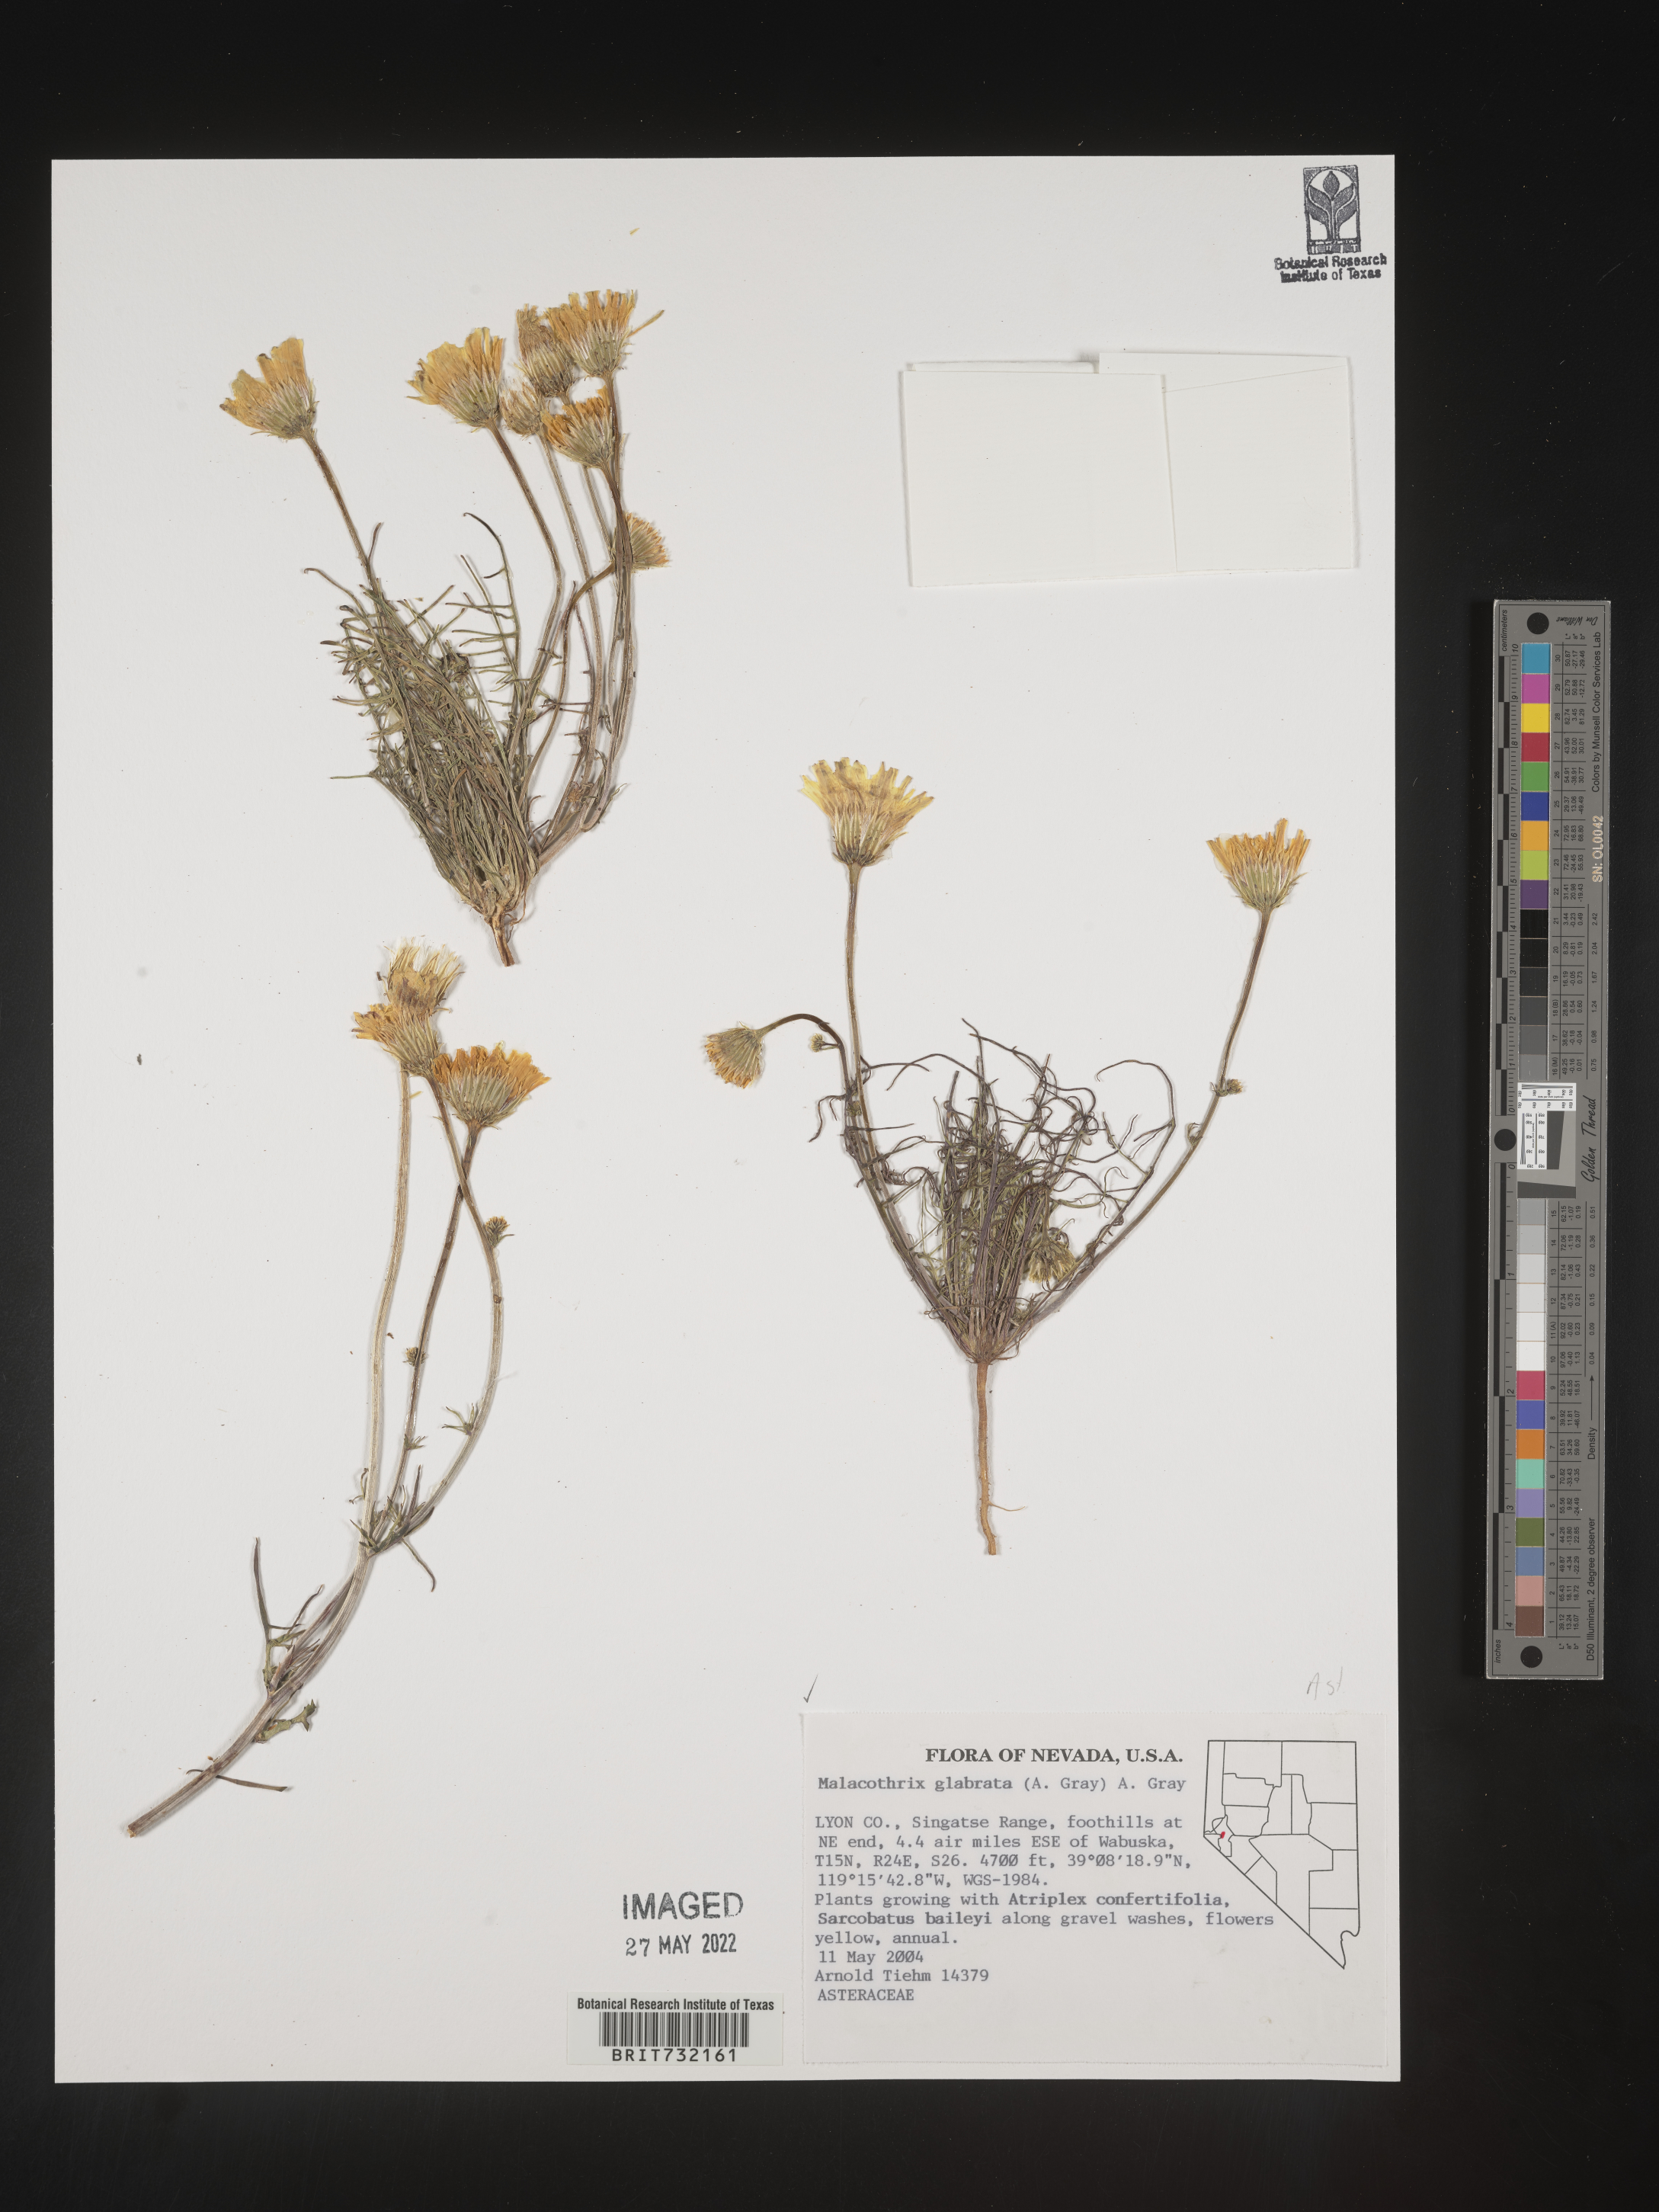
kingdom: Plantae
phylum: Tracheophyta
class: Magnoliopsida
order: Asterales
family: Asteraceae
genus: Malacothrix
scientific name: Malacothrix glabrata
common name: Smooth desert-dandelion
